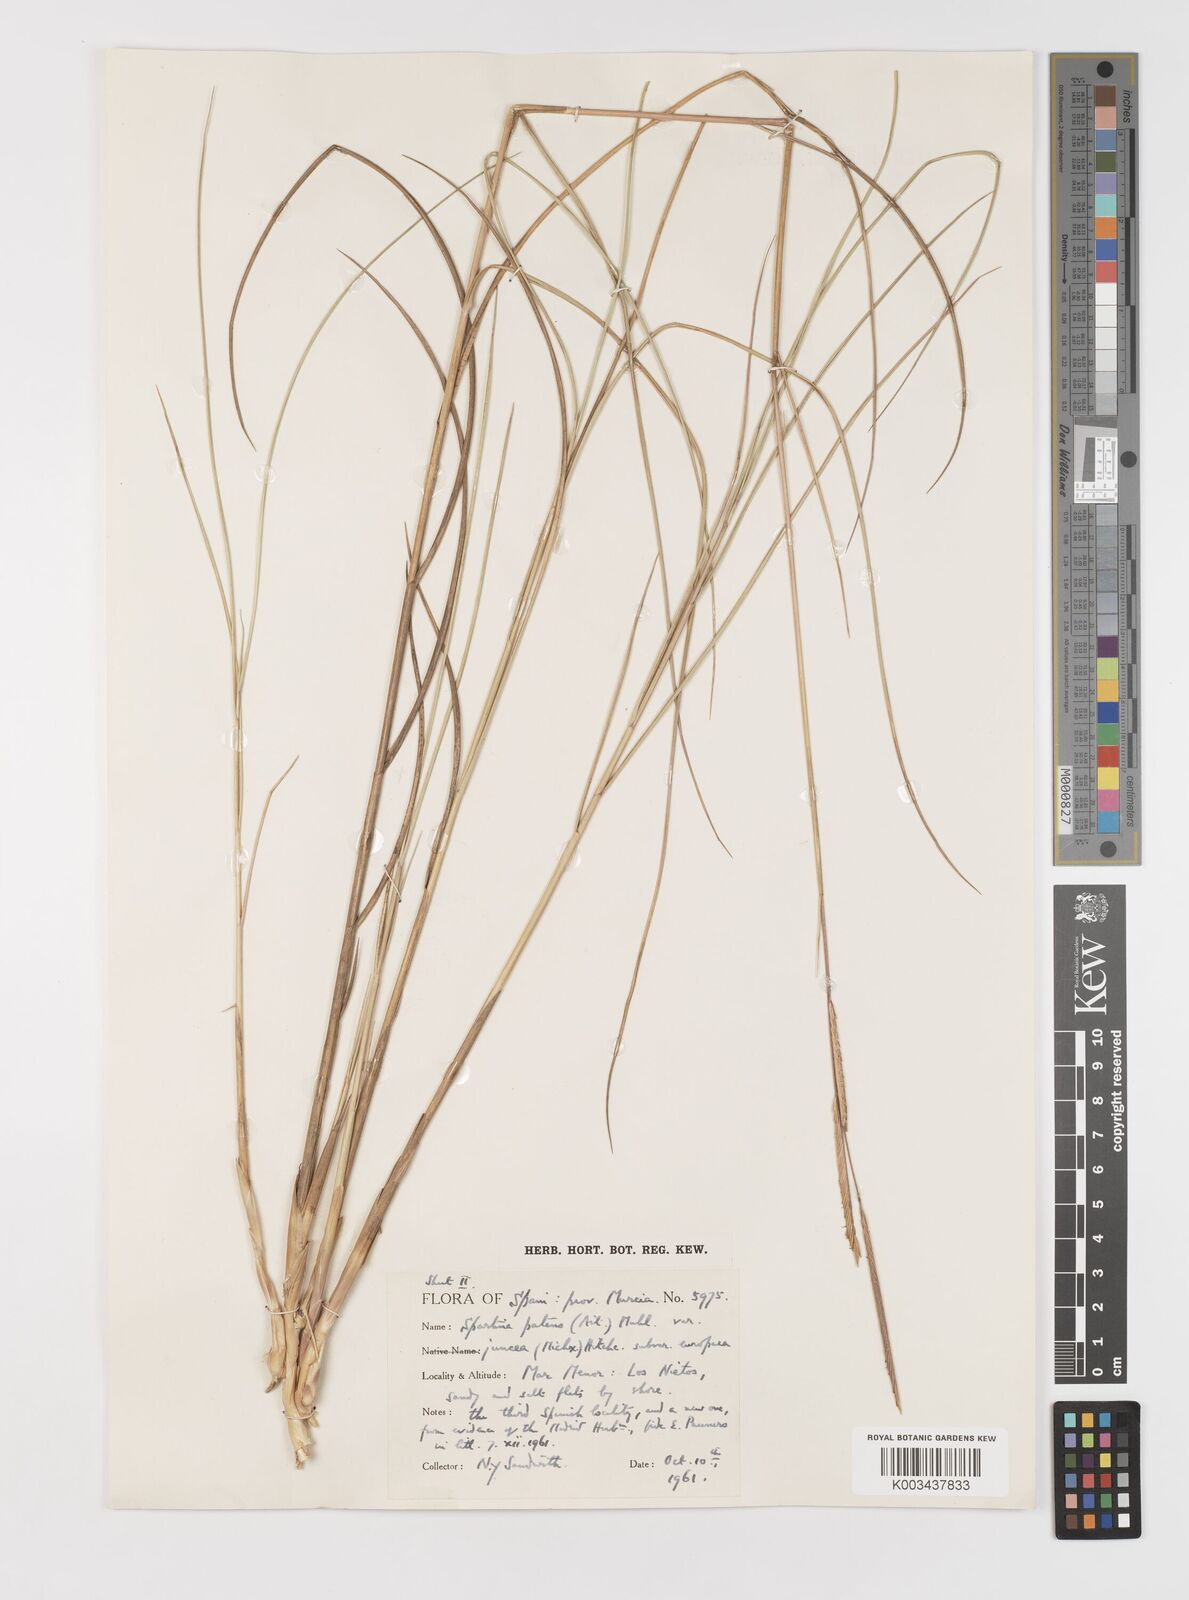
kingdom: Plantae
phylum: Tracheophyta
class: Liliopsida
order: Poales
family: Poaceae
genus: Sporobolus
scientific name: Sporobolus versicolor
